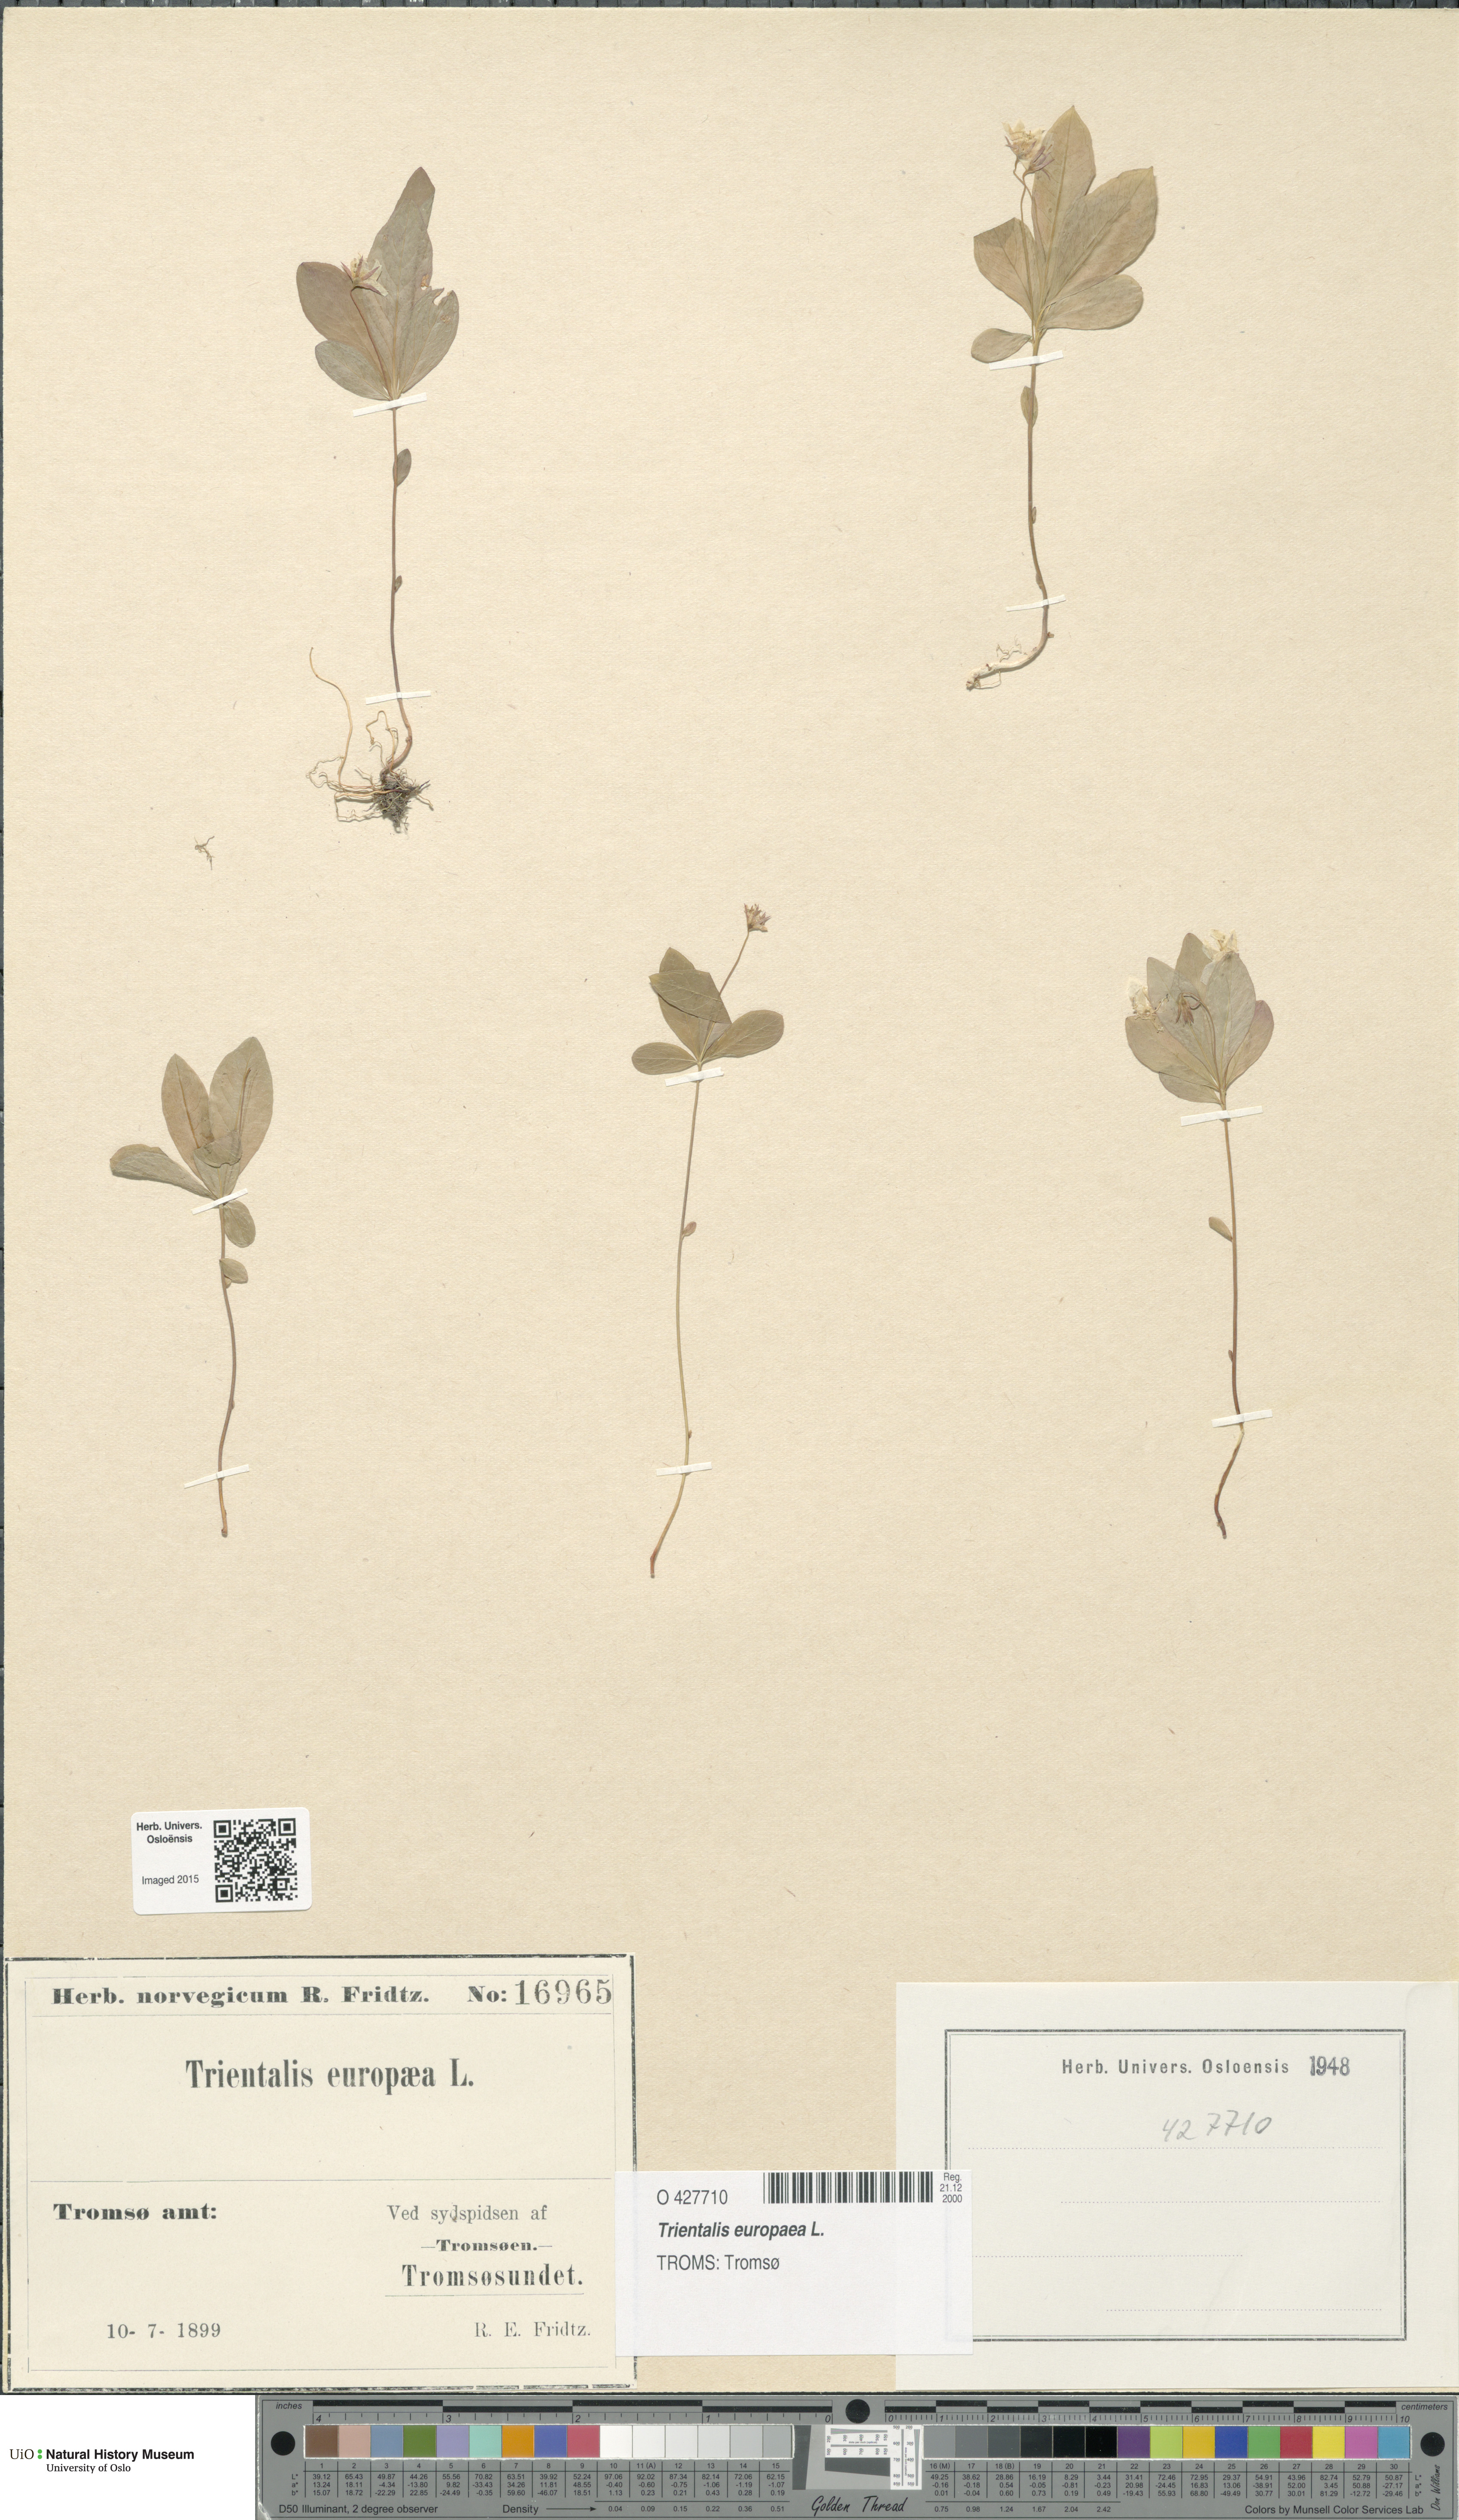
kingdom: Plantae
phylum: Tracheophyta
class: Magnoliopsida
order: Ericales
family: Primulaceae
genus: Lysimachia
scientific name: Lysimachia europaea
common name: Arctic starflower
